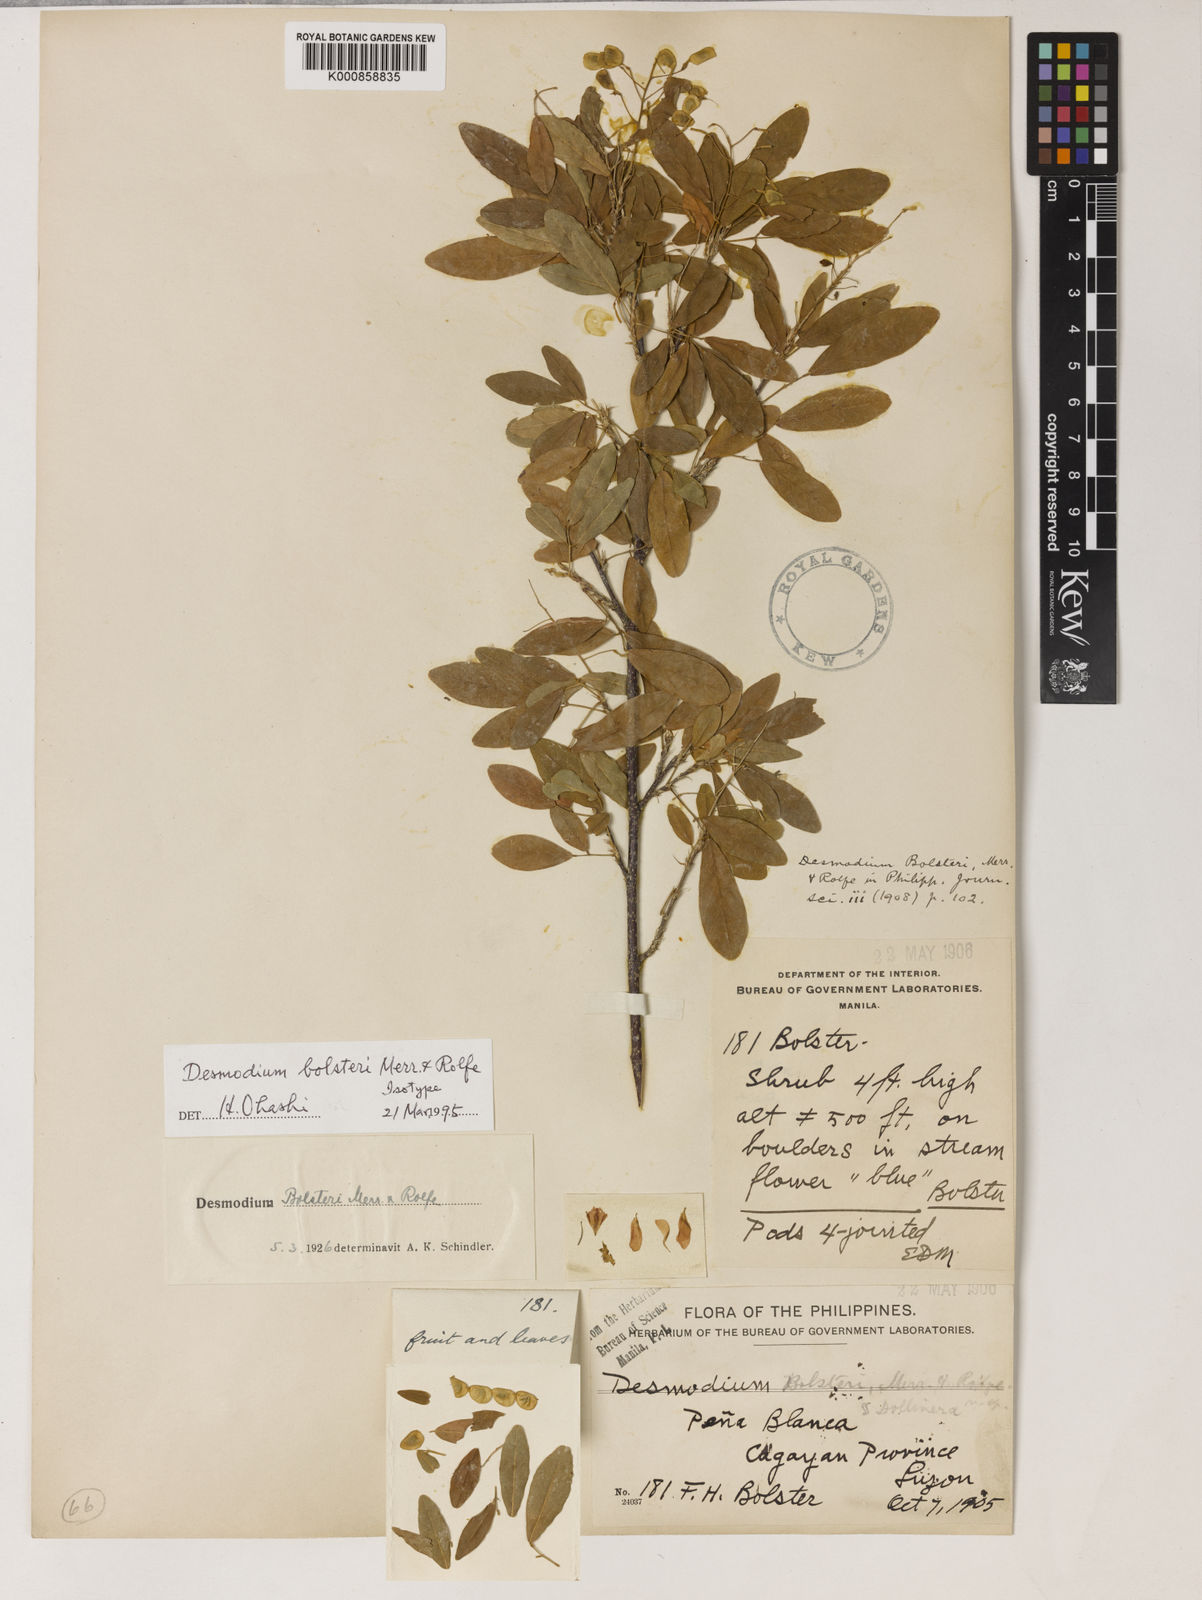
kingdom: Plantae
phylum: Tracheophyta
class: Magnoliopsida
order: Fabales
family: Fabaceae
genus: Tateishia
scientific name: Tateishia bolsteri
